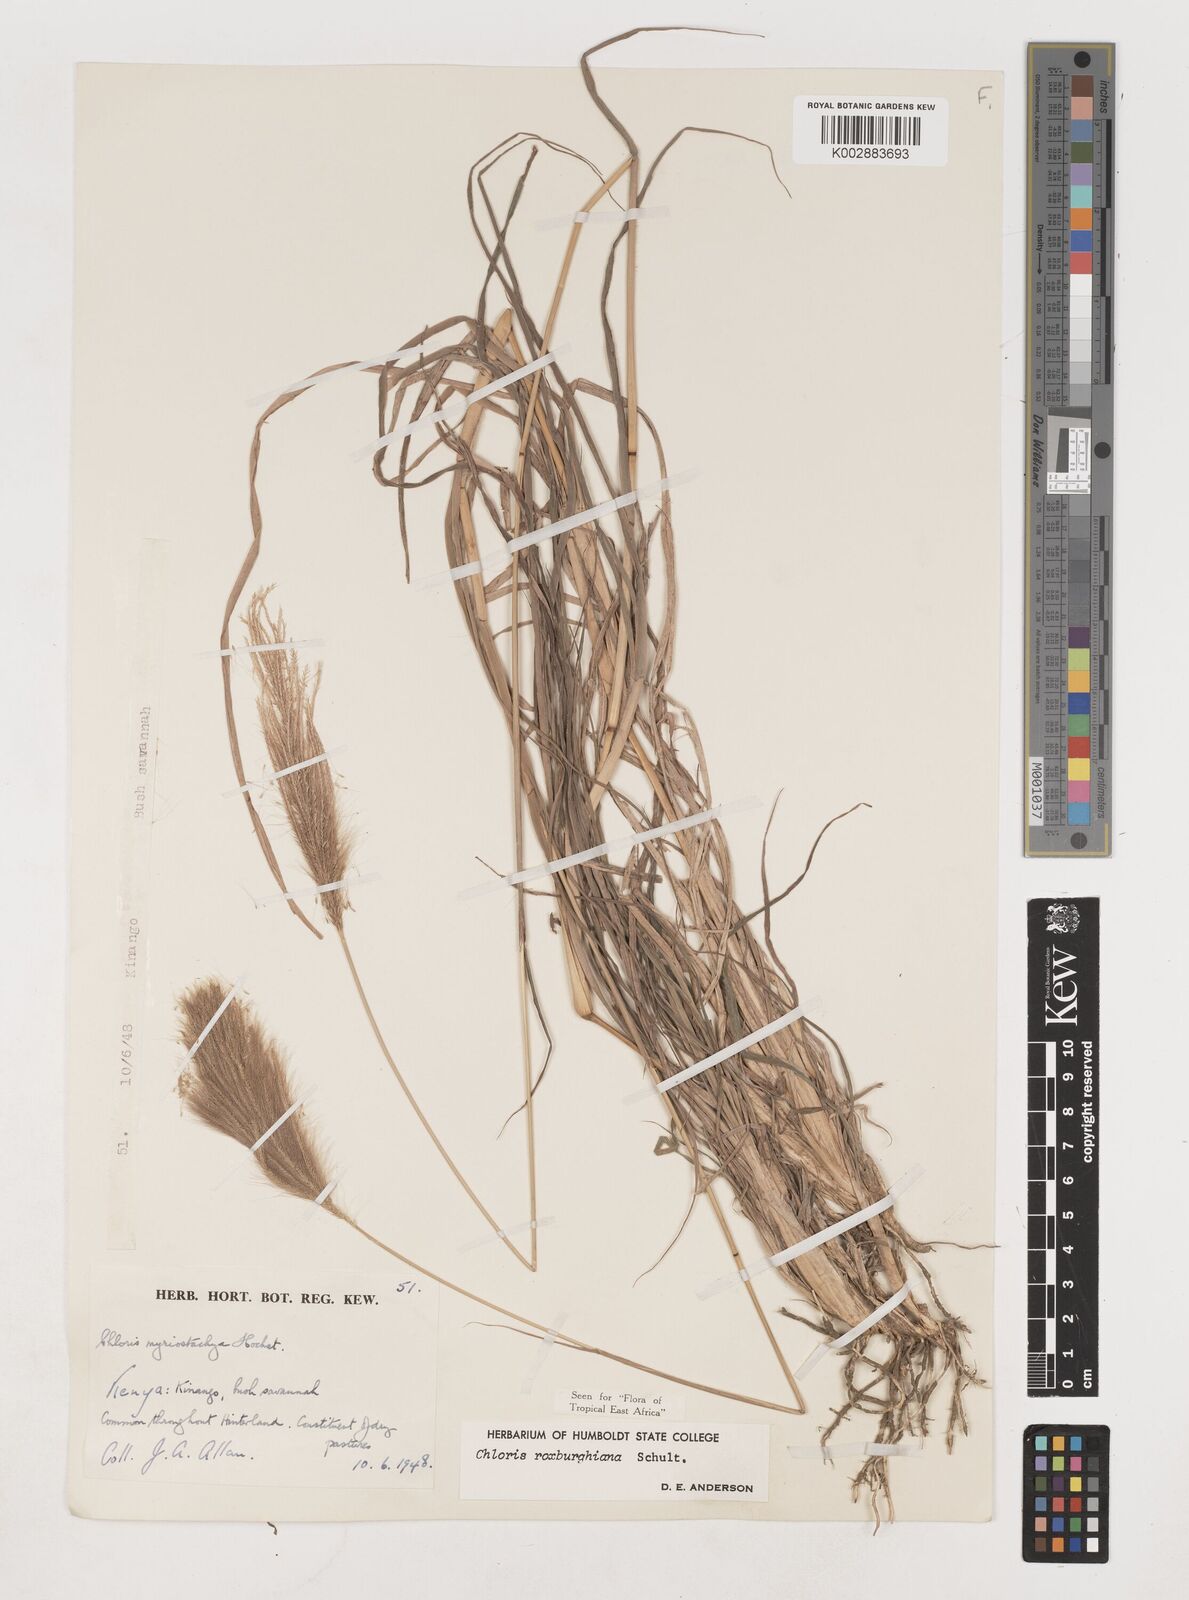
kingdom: Plantae
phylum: Tracheophyta
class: Liliopsida
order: Poales
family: Poaceae
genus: Tetrapogon
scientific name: Tetrapogon roxburghiana
